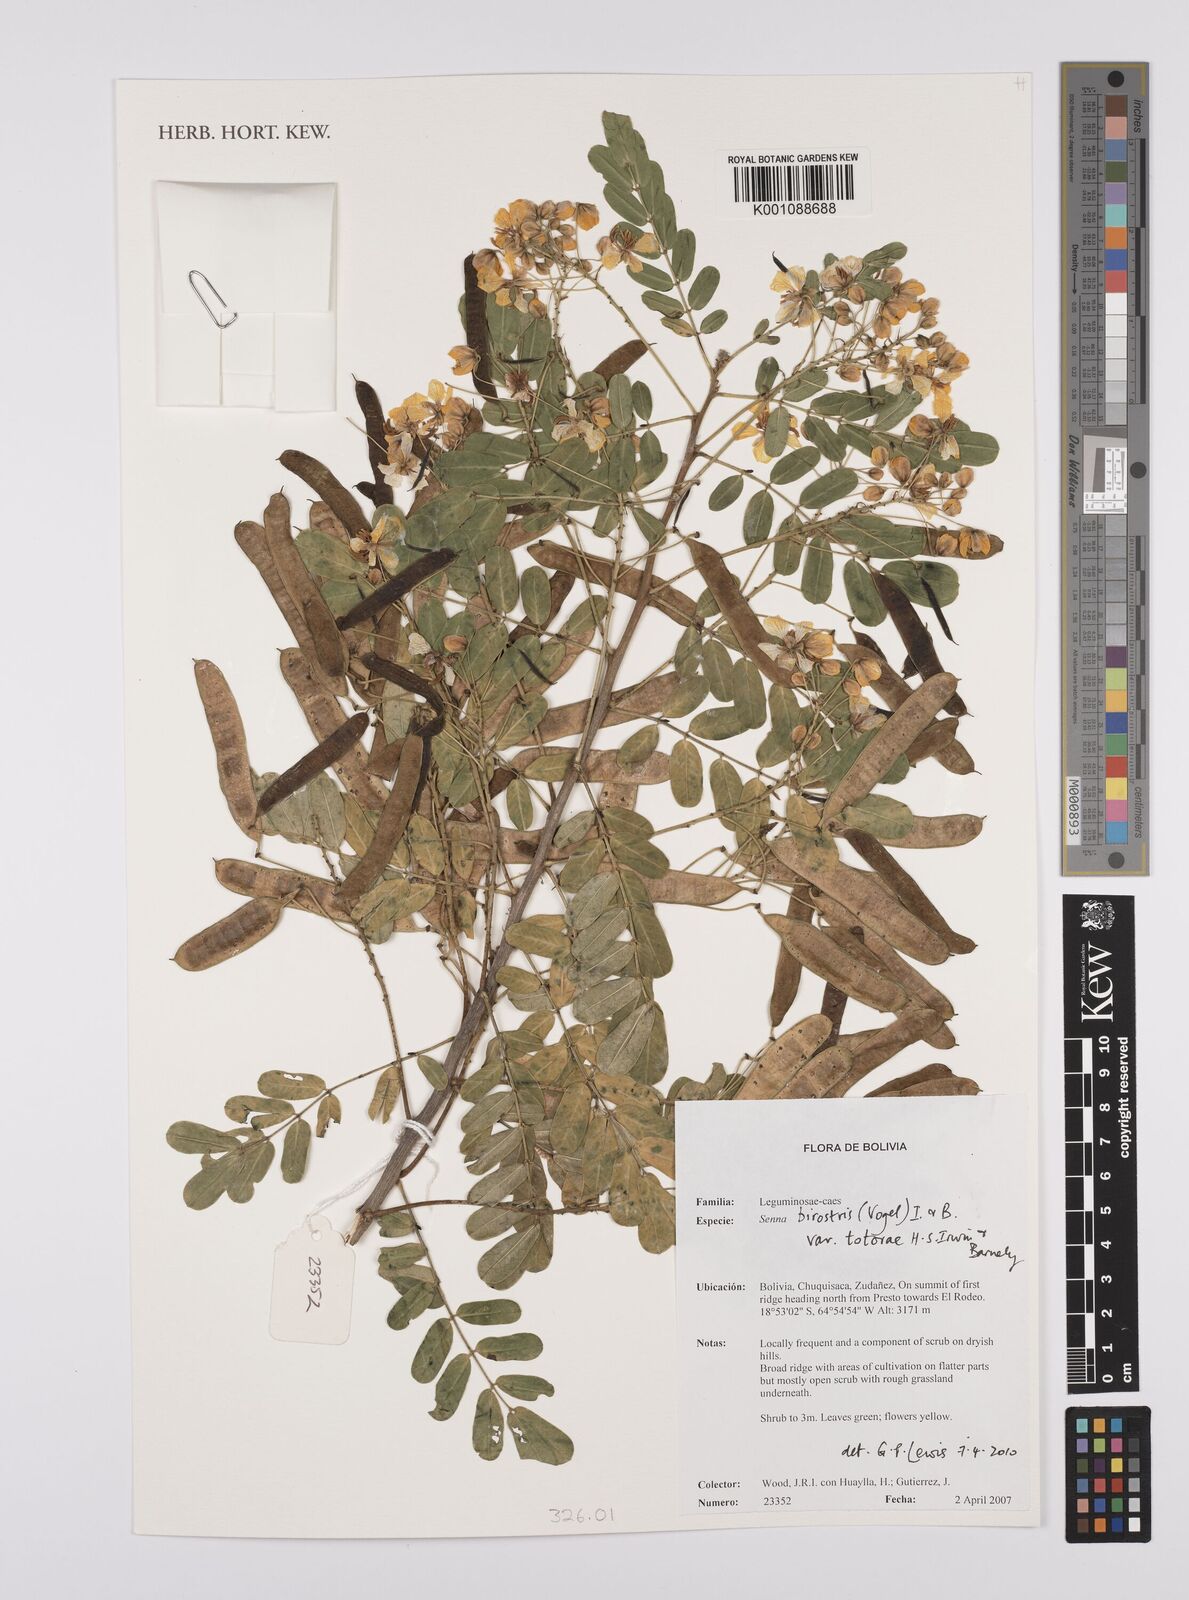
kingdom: Plantae
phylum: Tracheophyta
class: Magnoliopsida
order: Fabales
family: Fabaceae
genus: Senna
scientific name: Senna birostris
